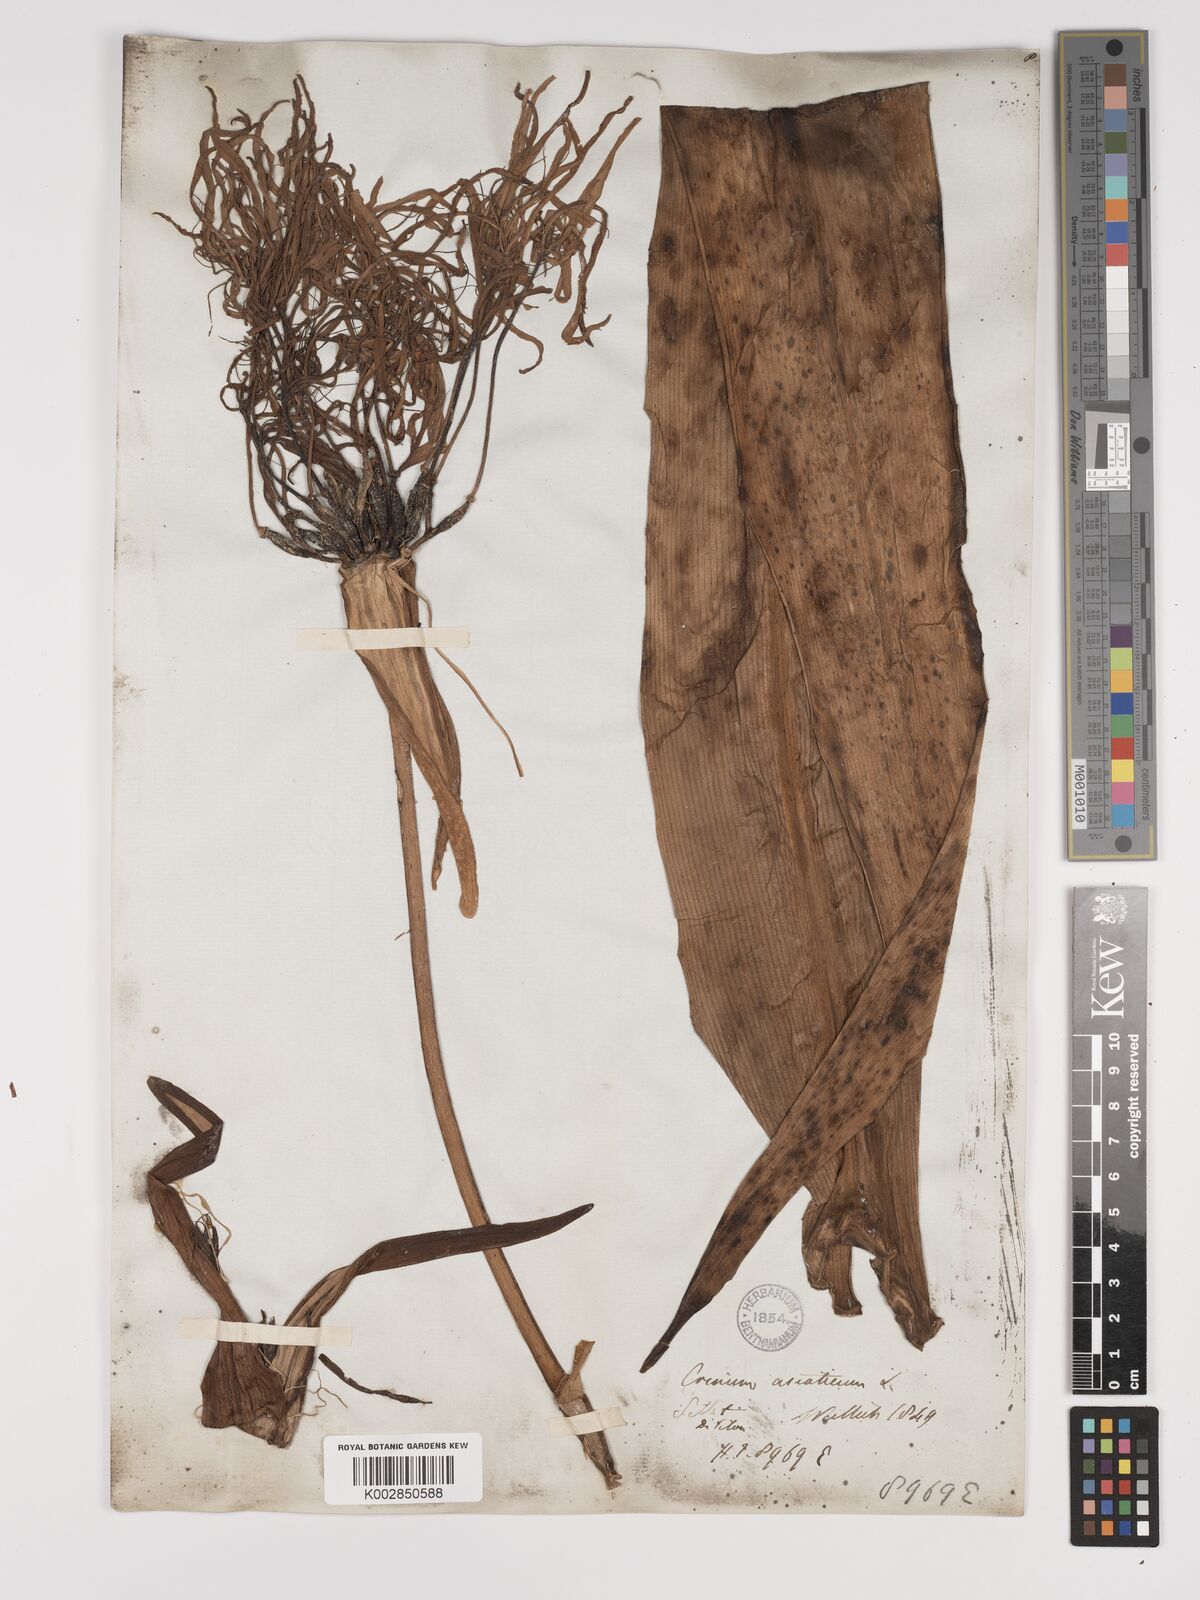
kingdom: Plantae
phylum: Tracheophyta
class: Liliopsida
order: Asparagales
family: Amaryllidaceae
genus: Crinum
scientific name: Crinum asiaticum
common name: Poisonbulb
